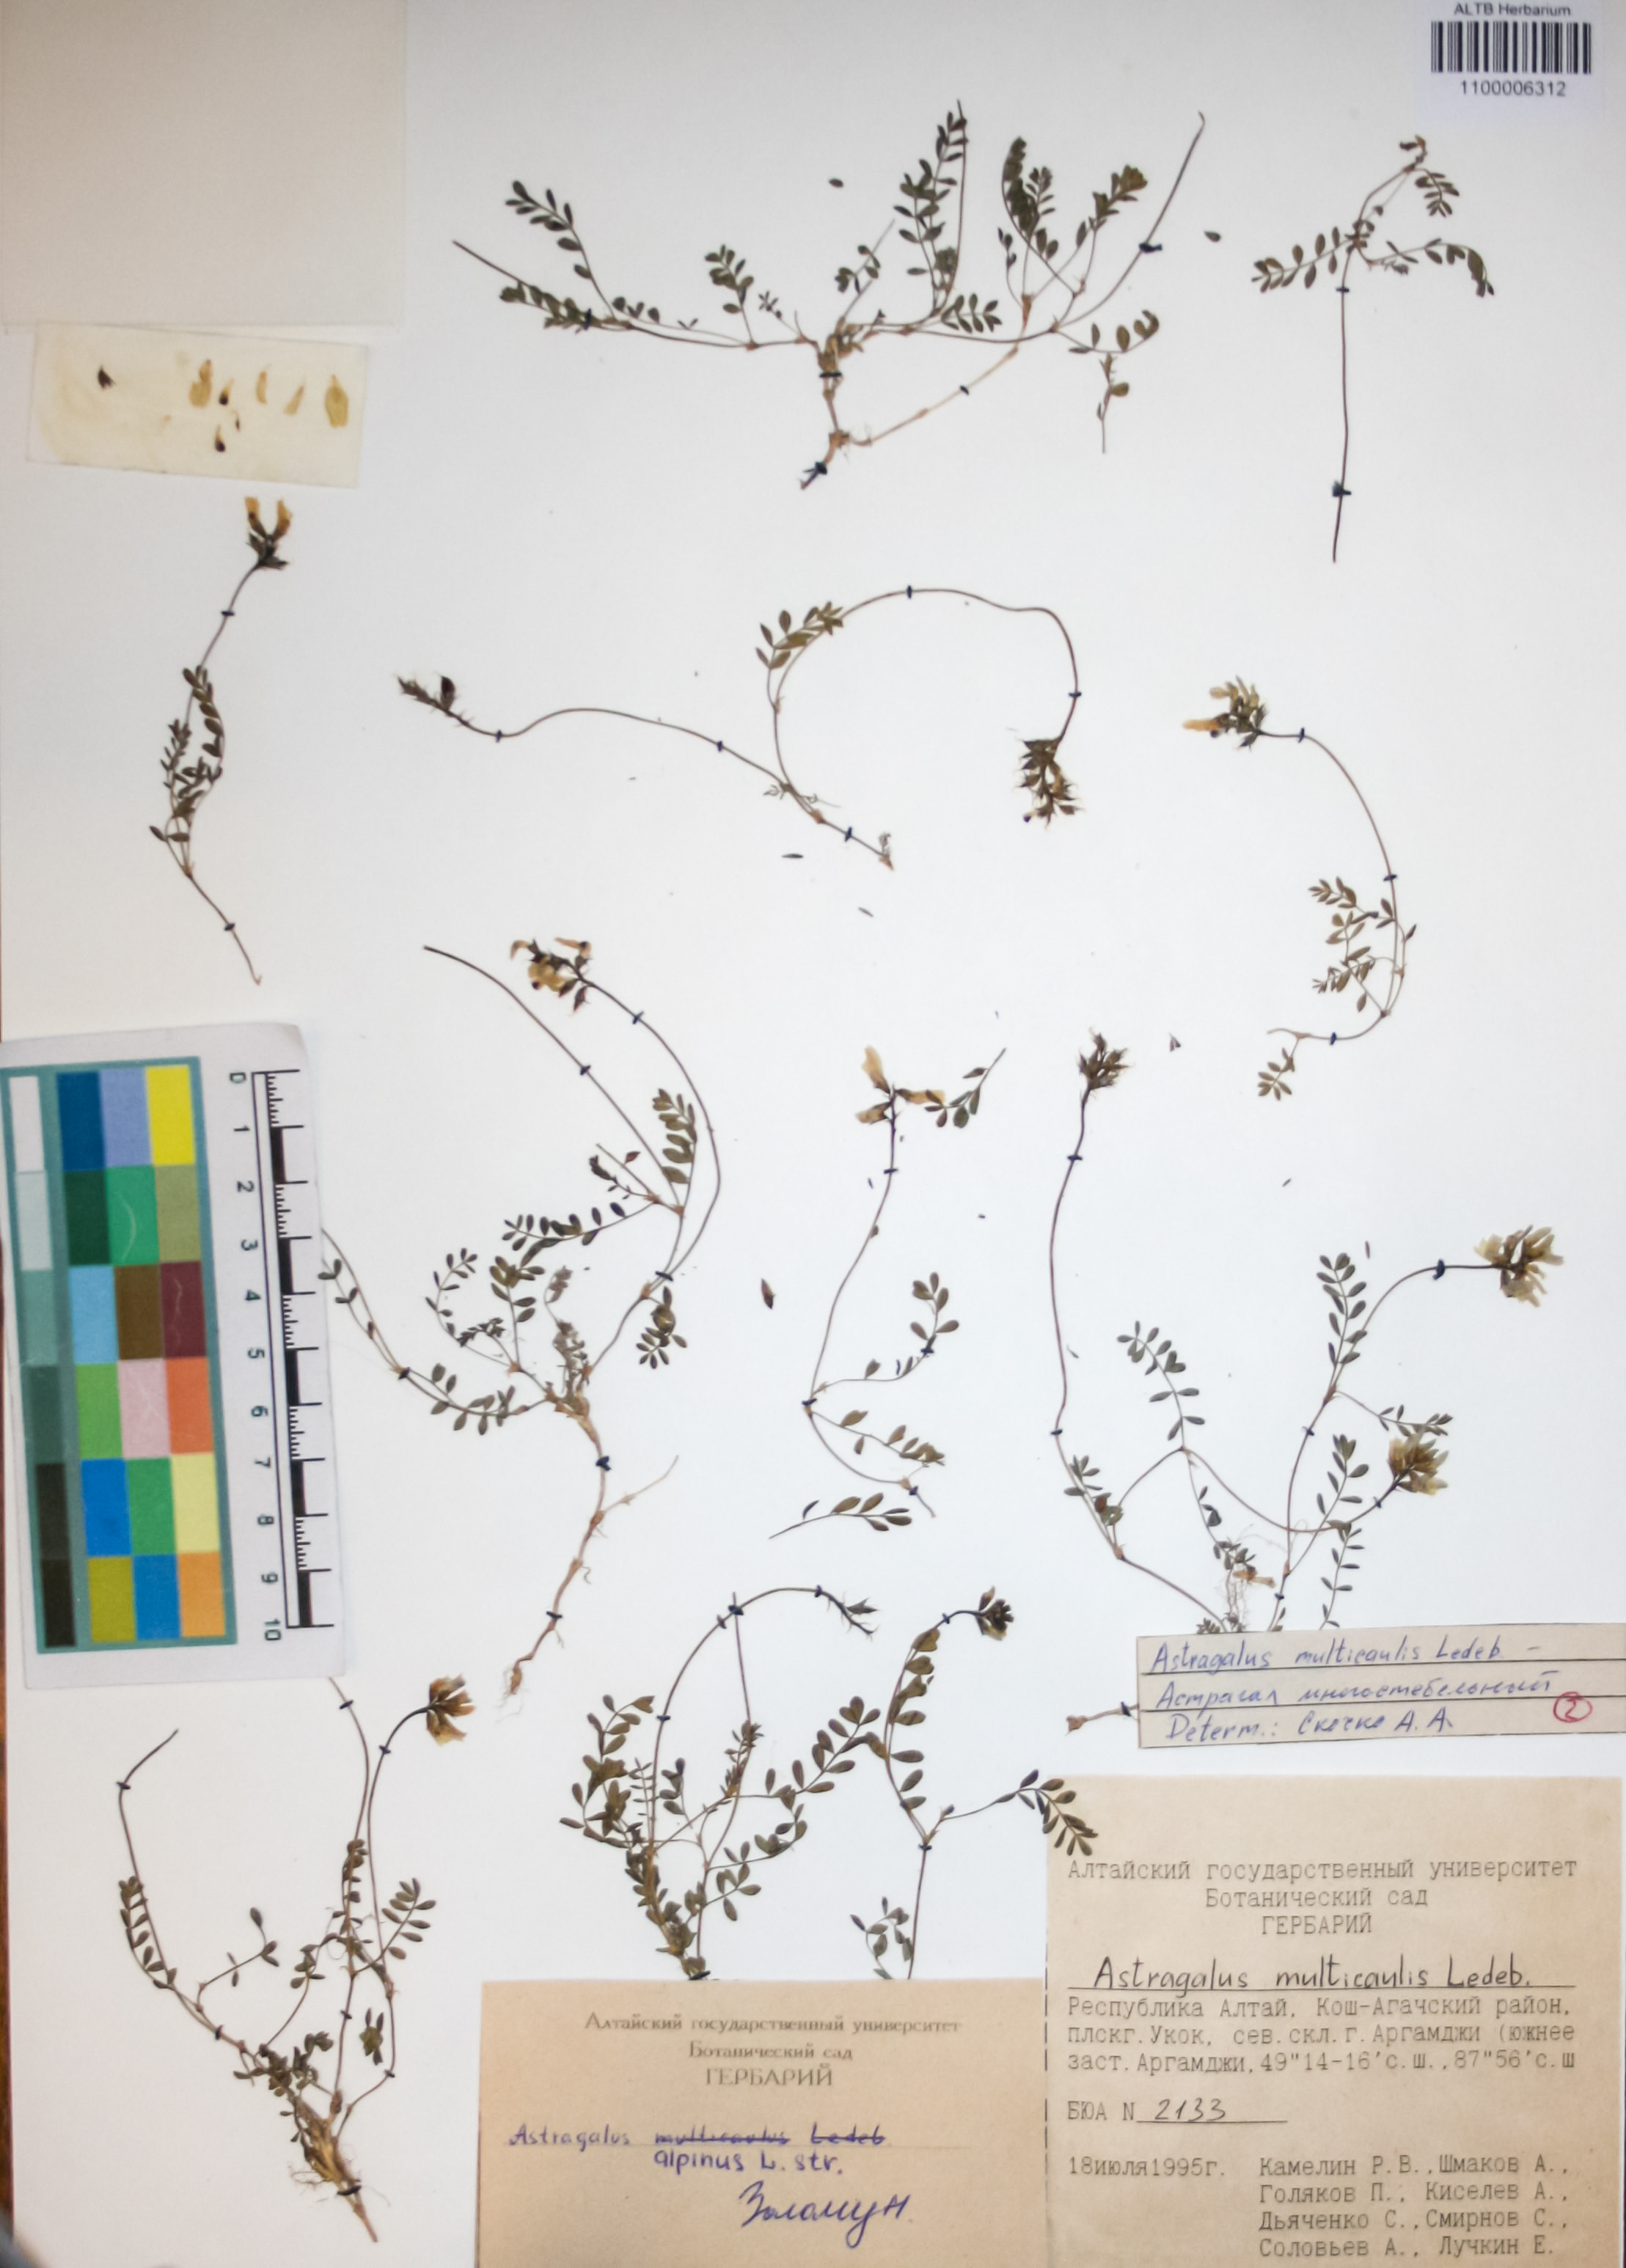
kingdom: Plantae
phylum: Tracheophyta
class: Magnoliopsida
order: Fabales
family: Fabaceae
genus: Astragalus
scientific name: Astragalus leptostachys
